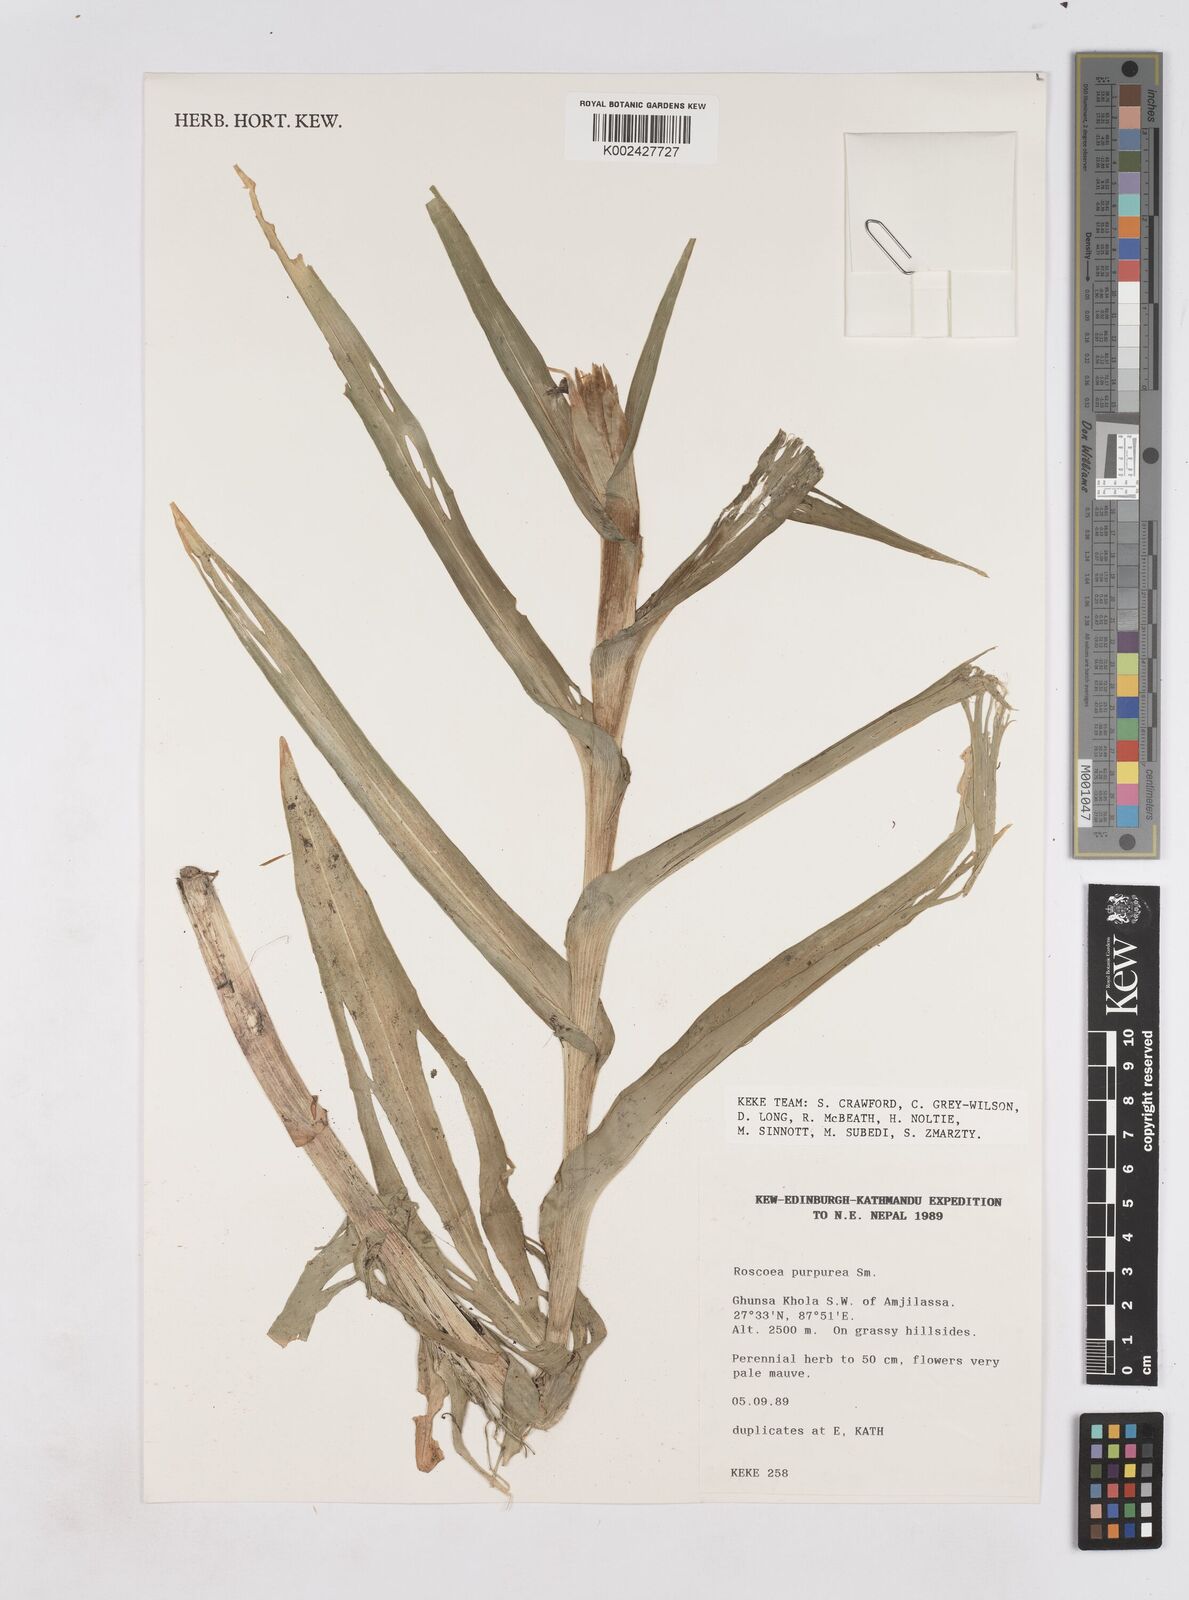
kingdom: Plantae
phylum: Tracheophyta
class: Liliopsida
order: Zingiberales
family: Zingiberaceae
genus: Roscoea
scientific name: Roscoea purpurea
